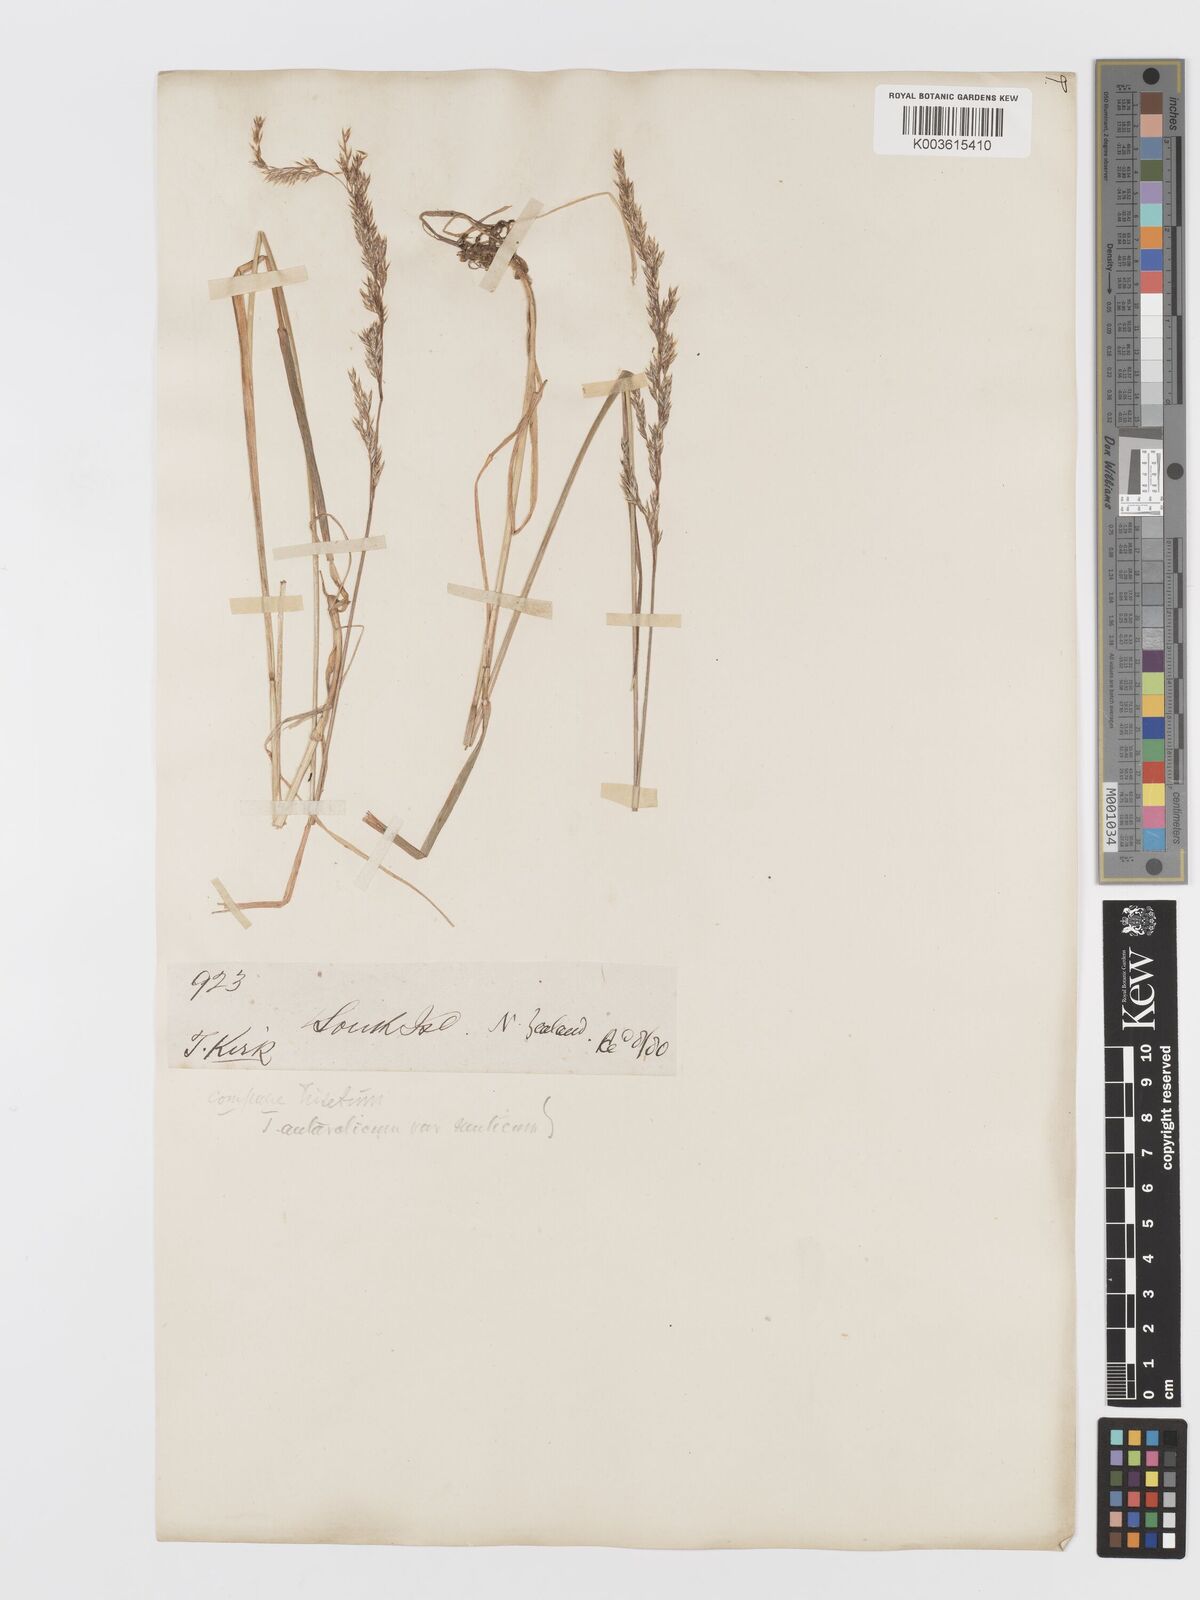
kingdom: Plantae
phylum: Tracheophyta
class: Liliopsida
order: Poales
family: Poaceae
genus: Koeleria
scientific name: Koeleria antarctica
